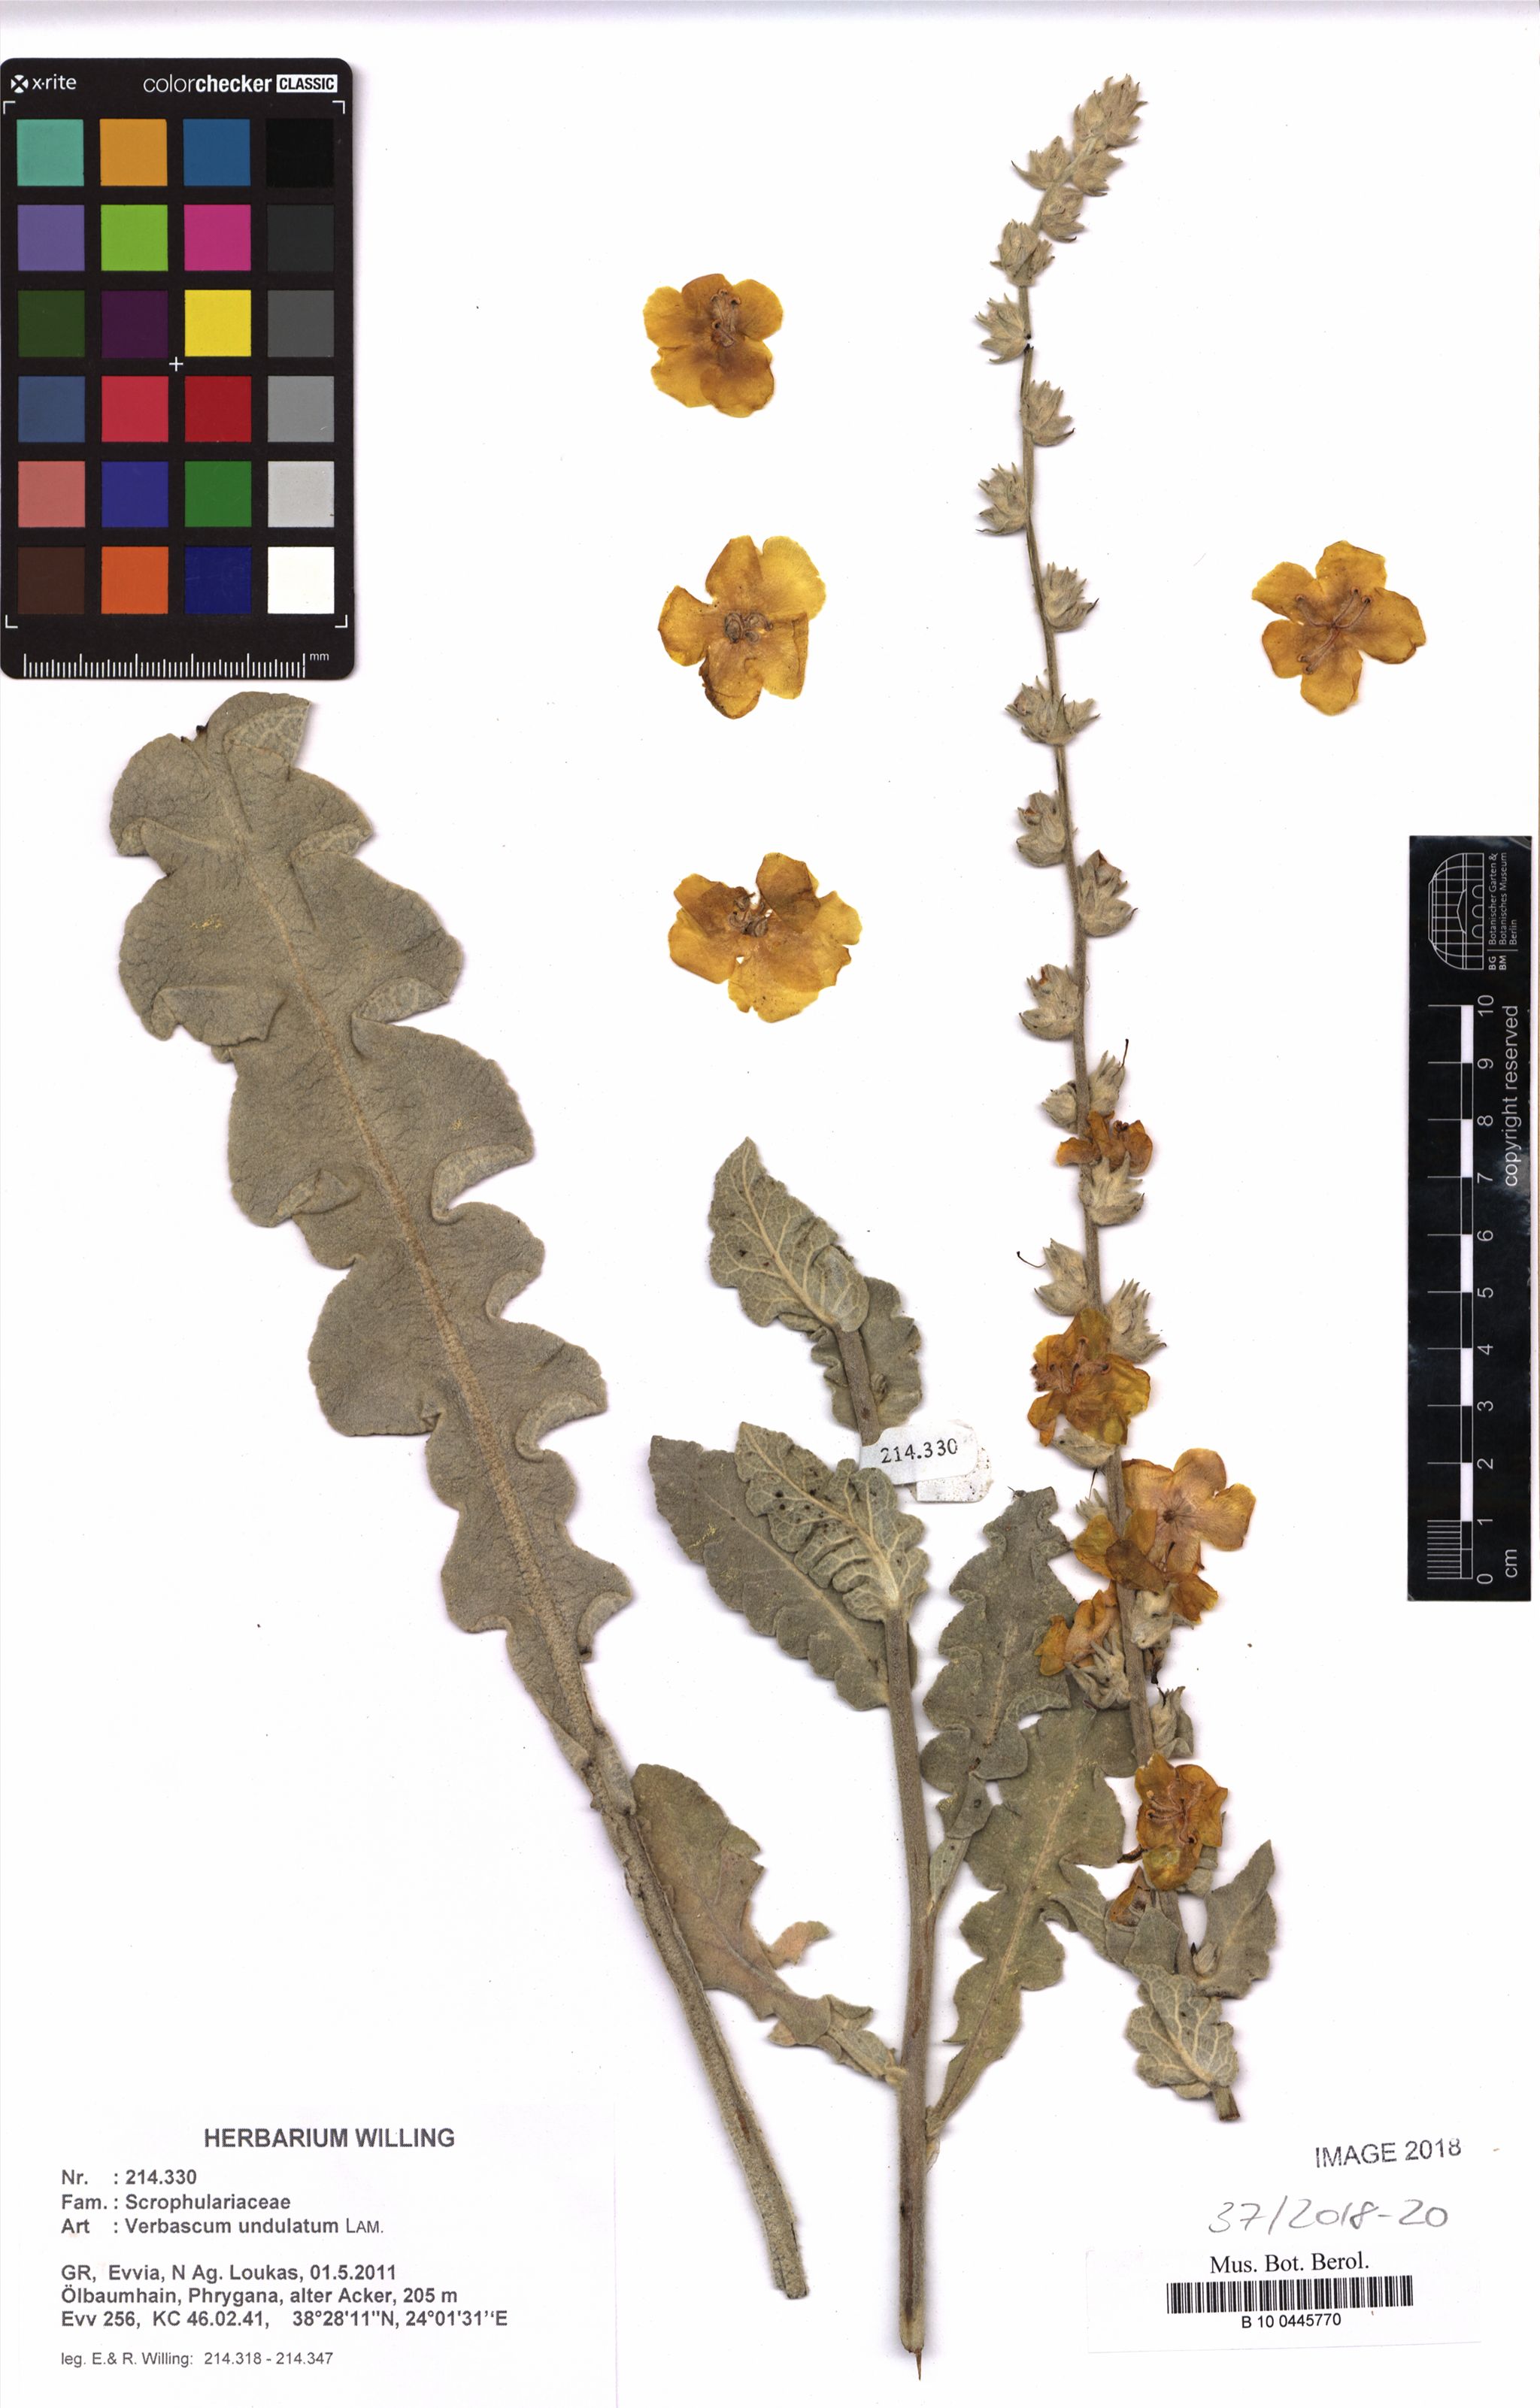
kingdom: Plantae
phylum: Tracheophyta
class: Magnoliopsida
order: Lamiales
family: Scrophulariaceae
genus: Verbascum
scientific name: Verbascum undulatum
